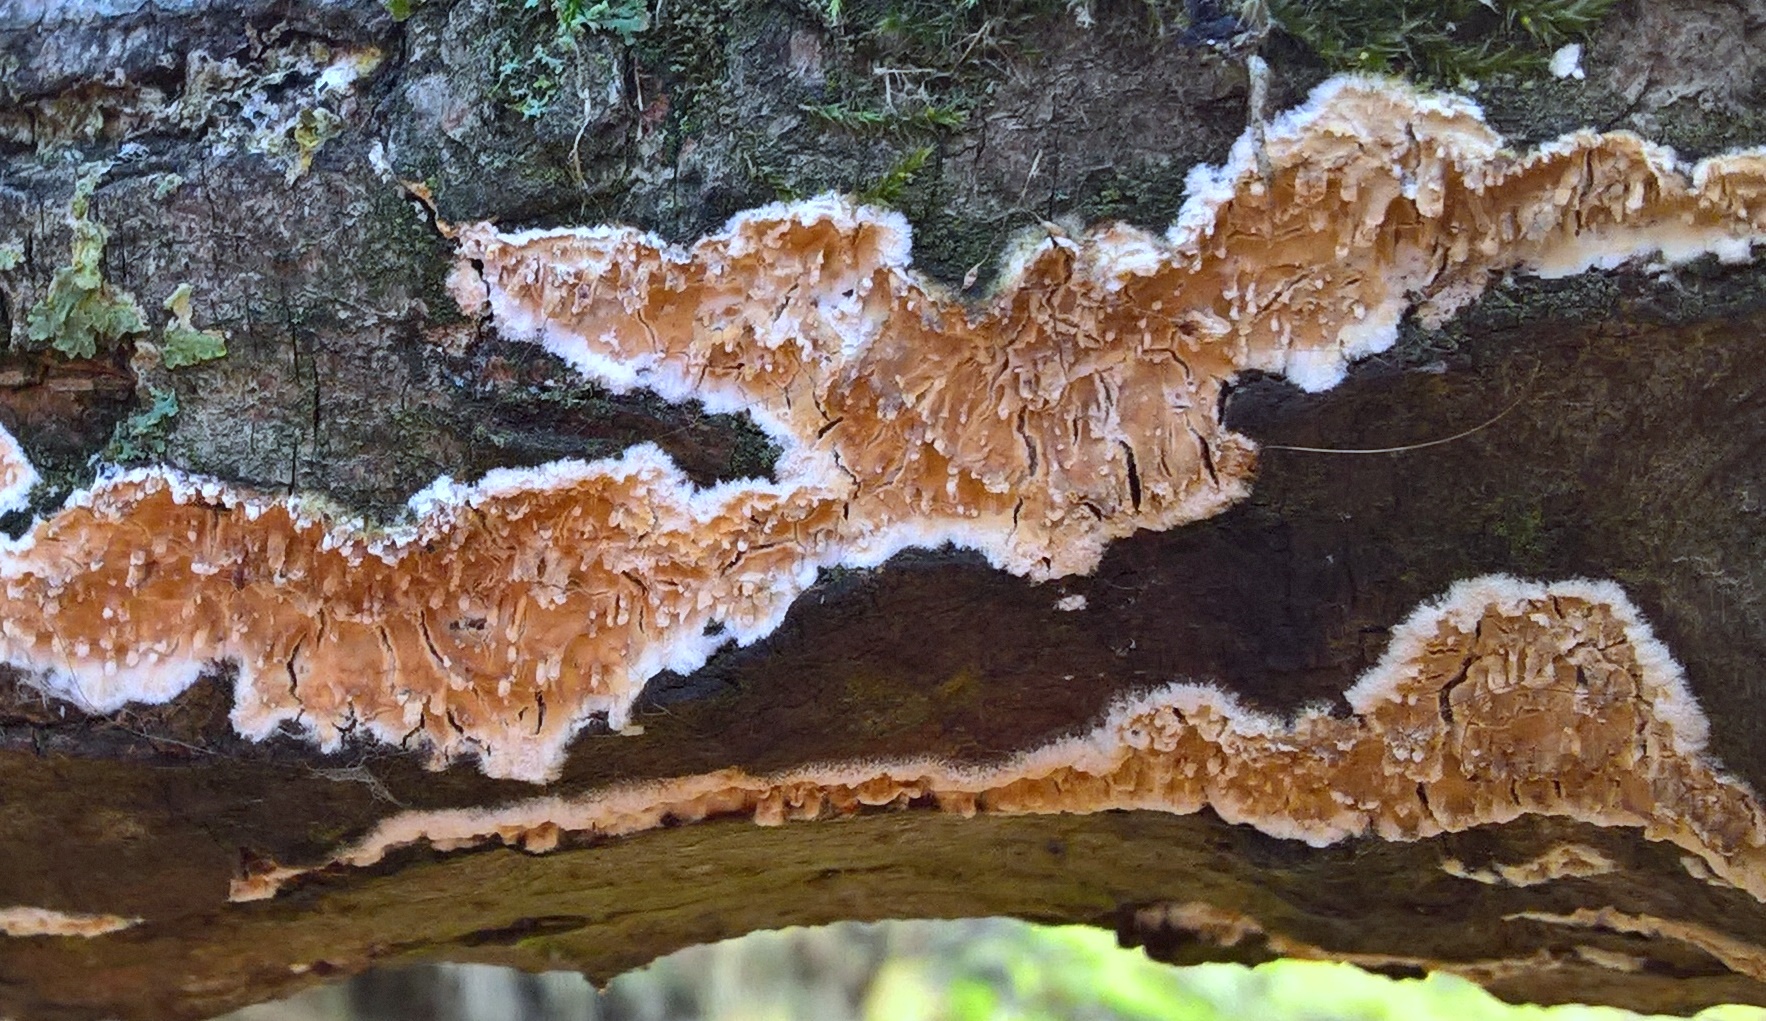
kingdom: Fungi
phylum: Basidiomycota
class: Agaricomycetes
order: Hymenochaetales
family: Schizoporaceae
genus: Xylodon
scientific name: Xylodon radula
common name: grovtandet kalkskind
